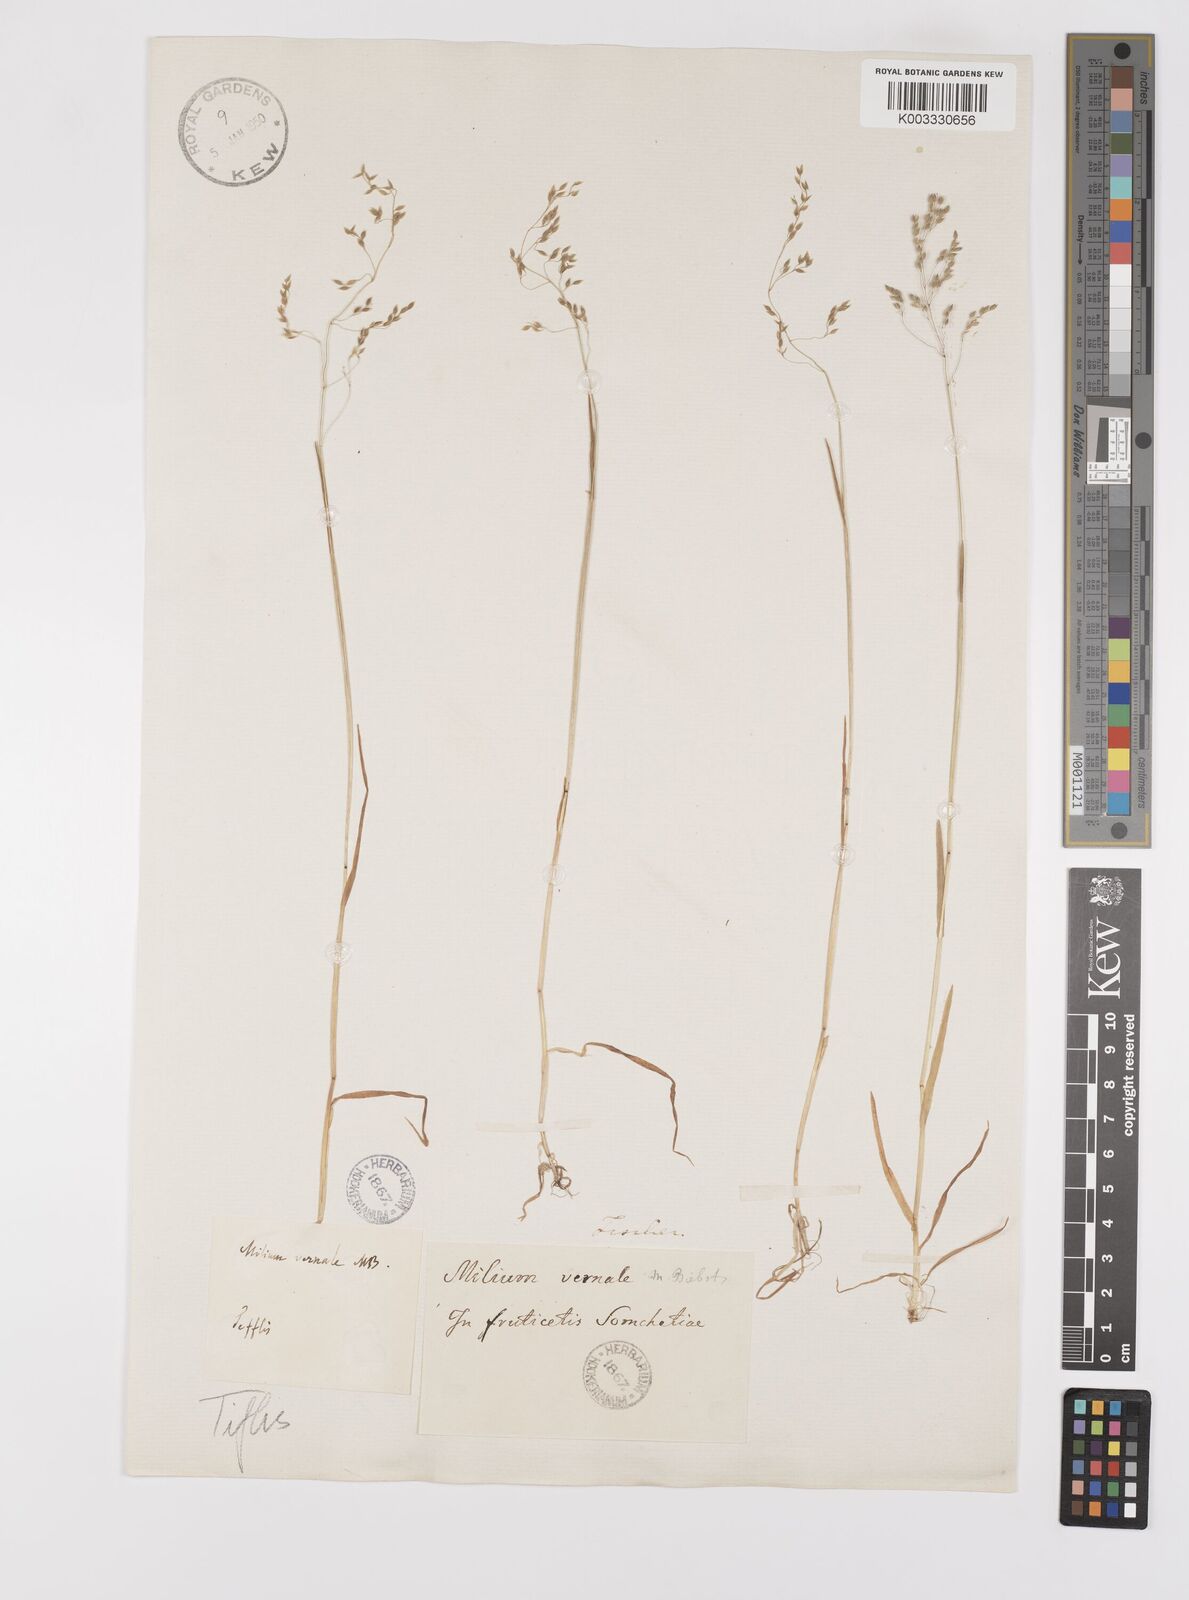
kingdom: Plantae
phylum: Tracheophyta
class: Liliopsida
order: Poales
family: Poaceae
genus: Milium
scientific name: Milium vernale
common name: Early millet
